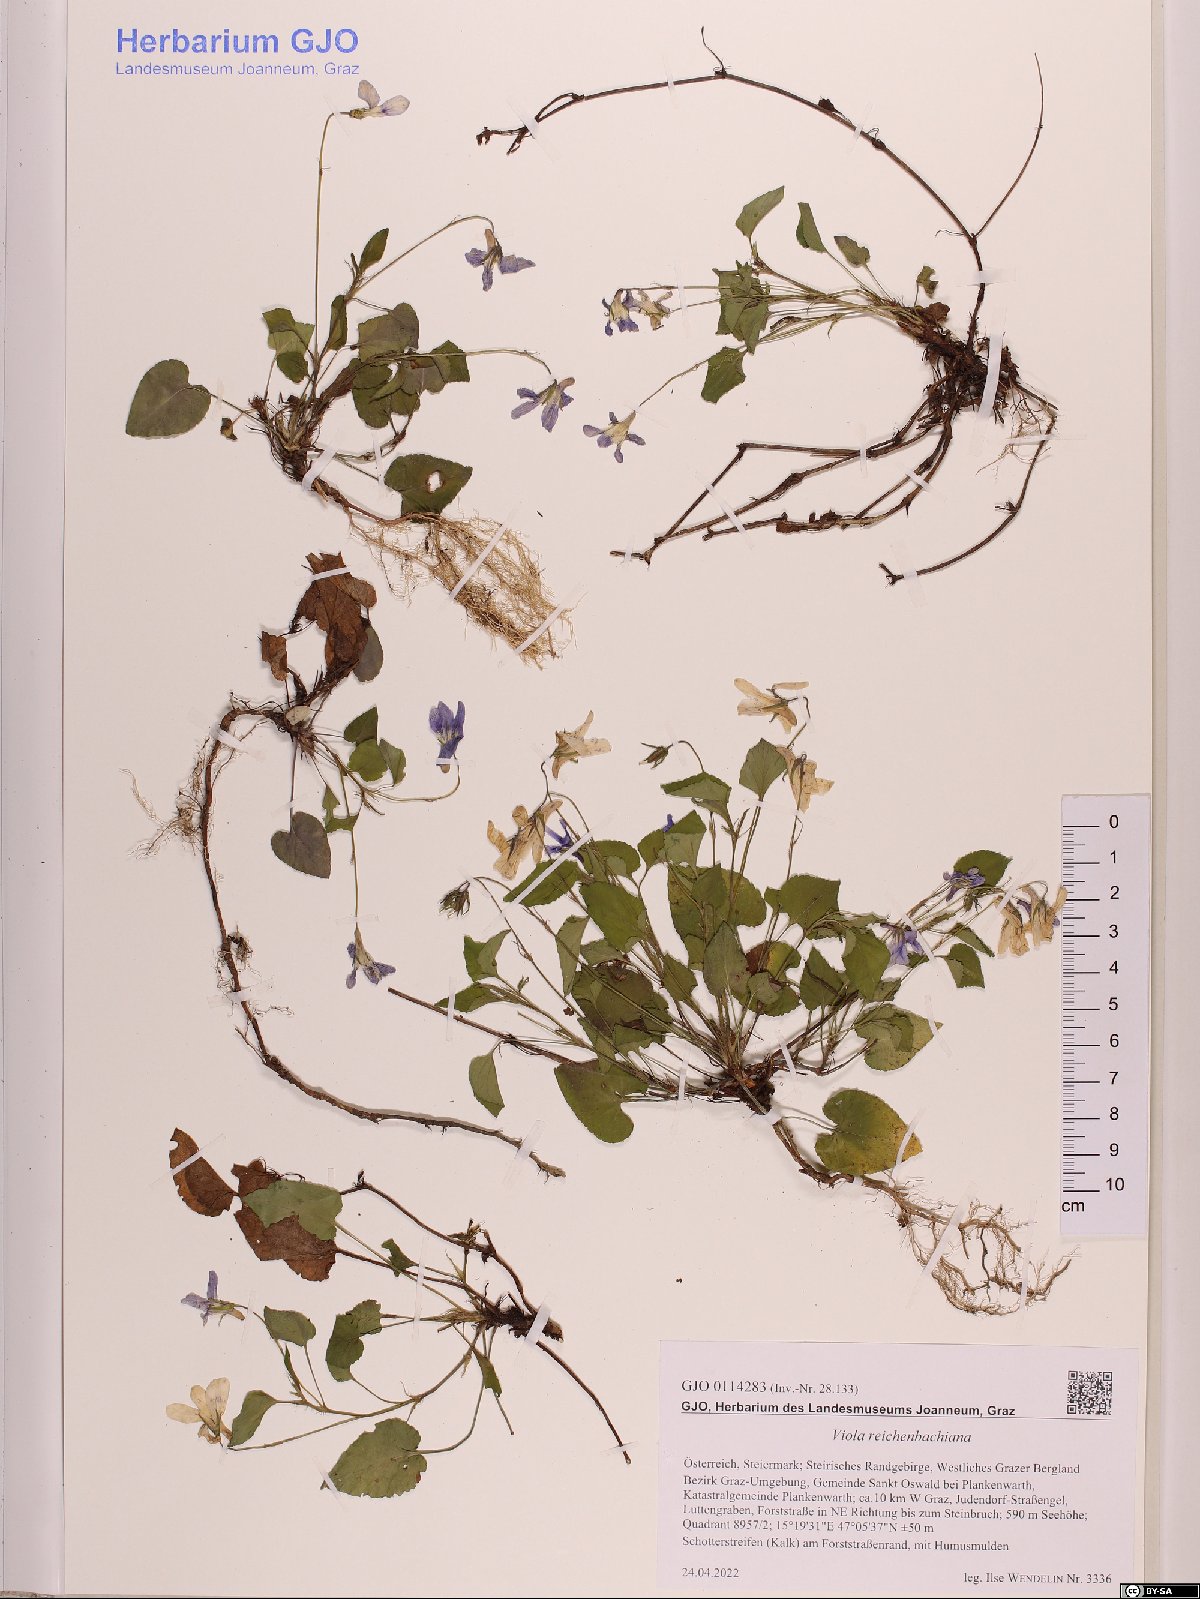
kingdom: Plantae
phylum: Tracheophyta
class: Magnoliopsida
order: Malpighiales
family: Violaceae
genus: Viola
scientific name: Viola reichenbachiana
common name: Early dog-violet
